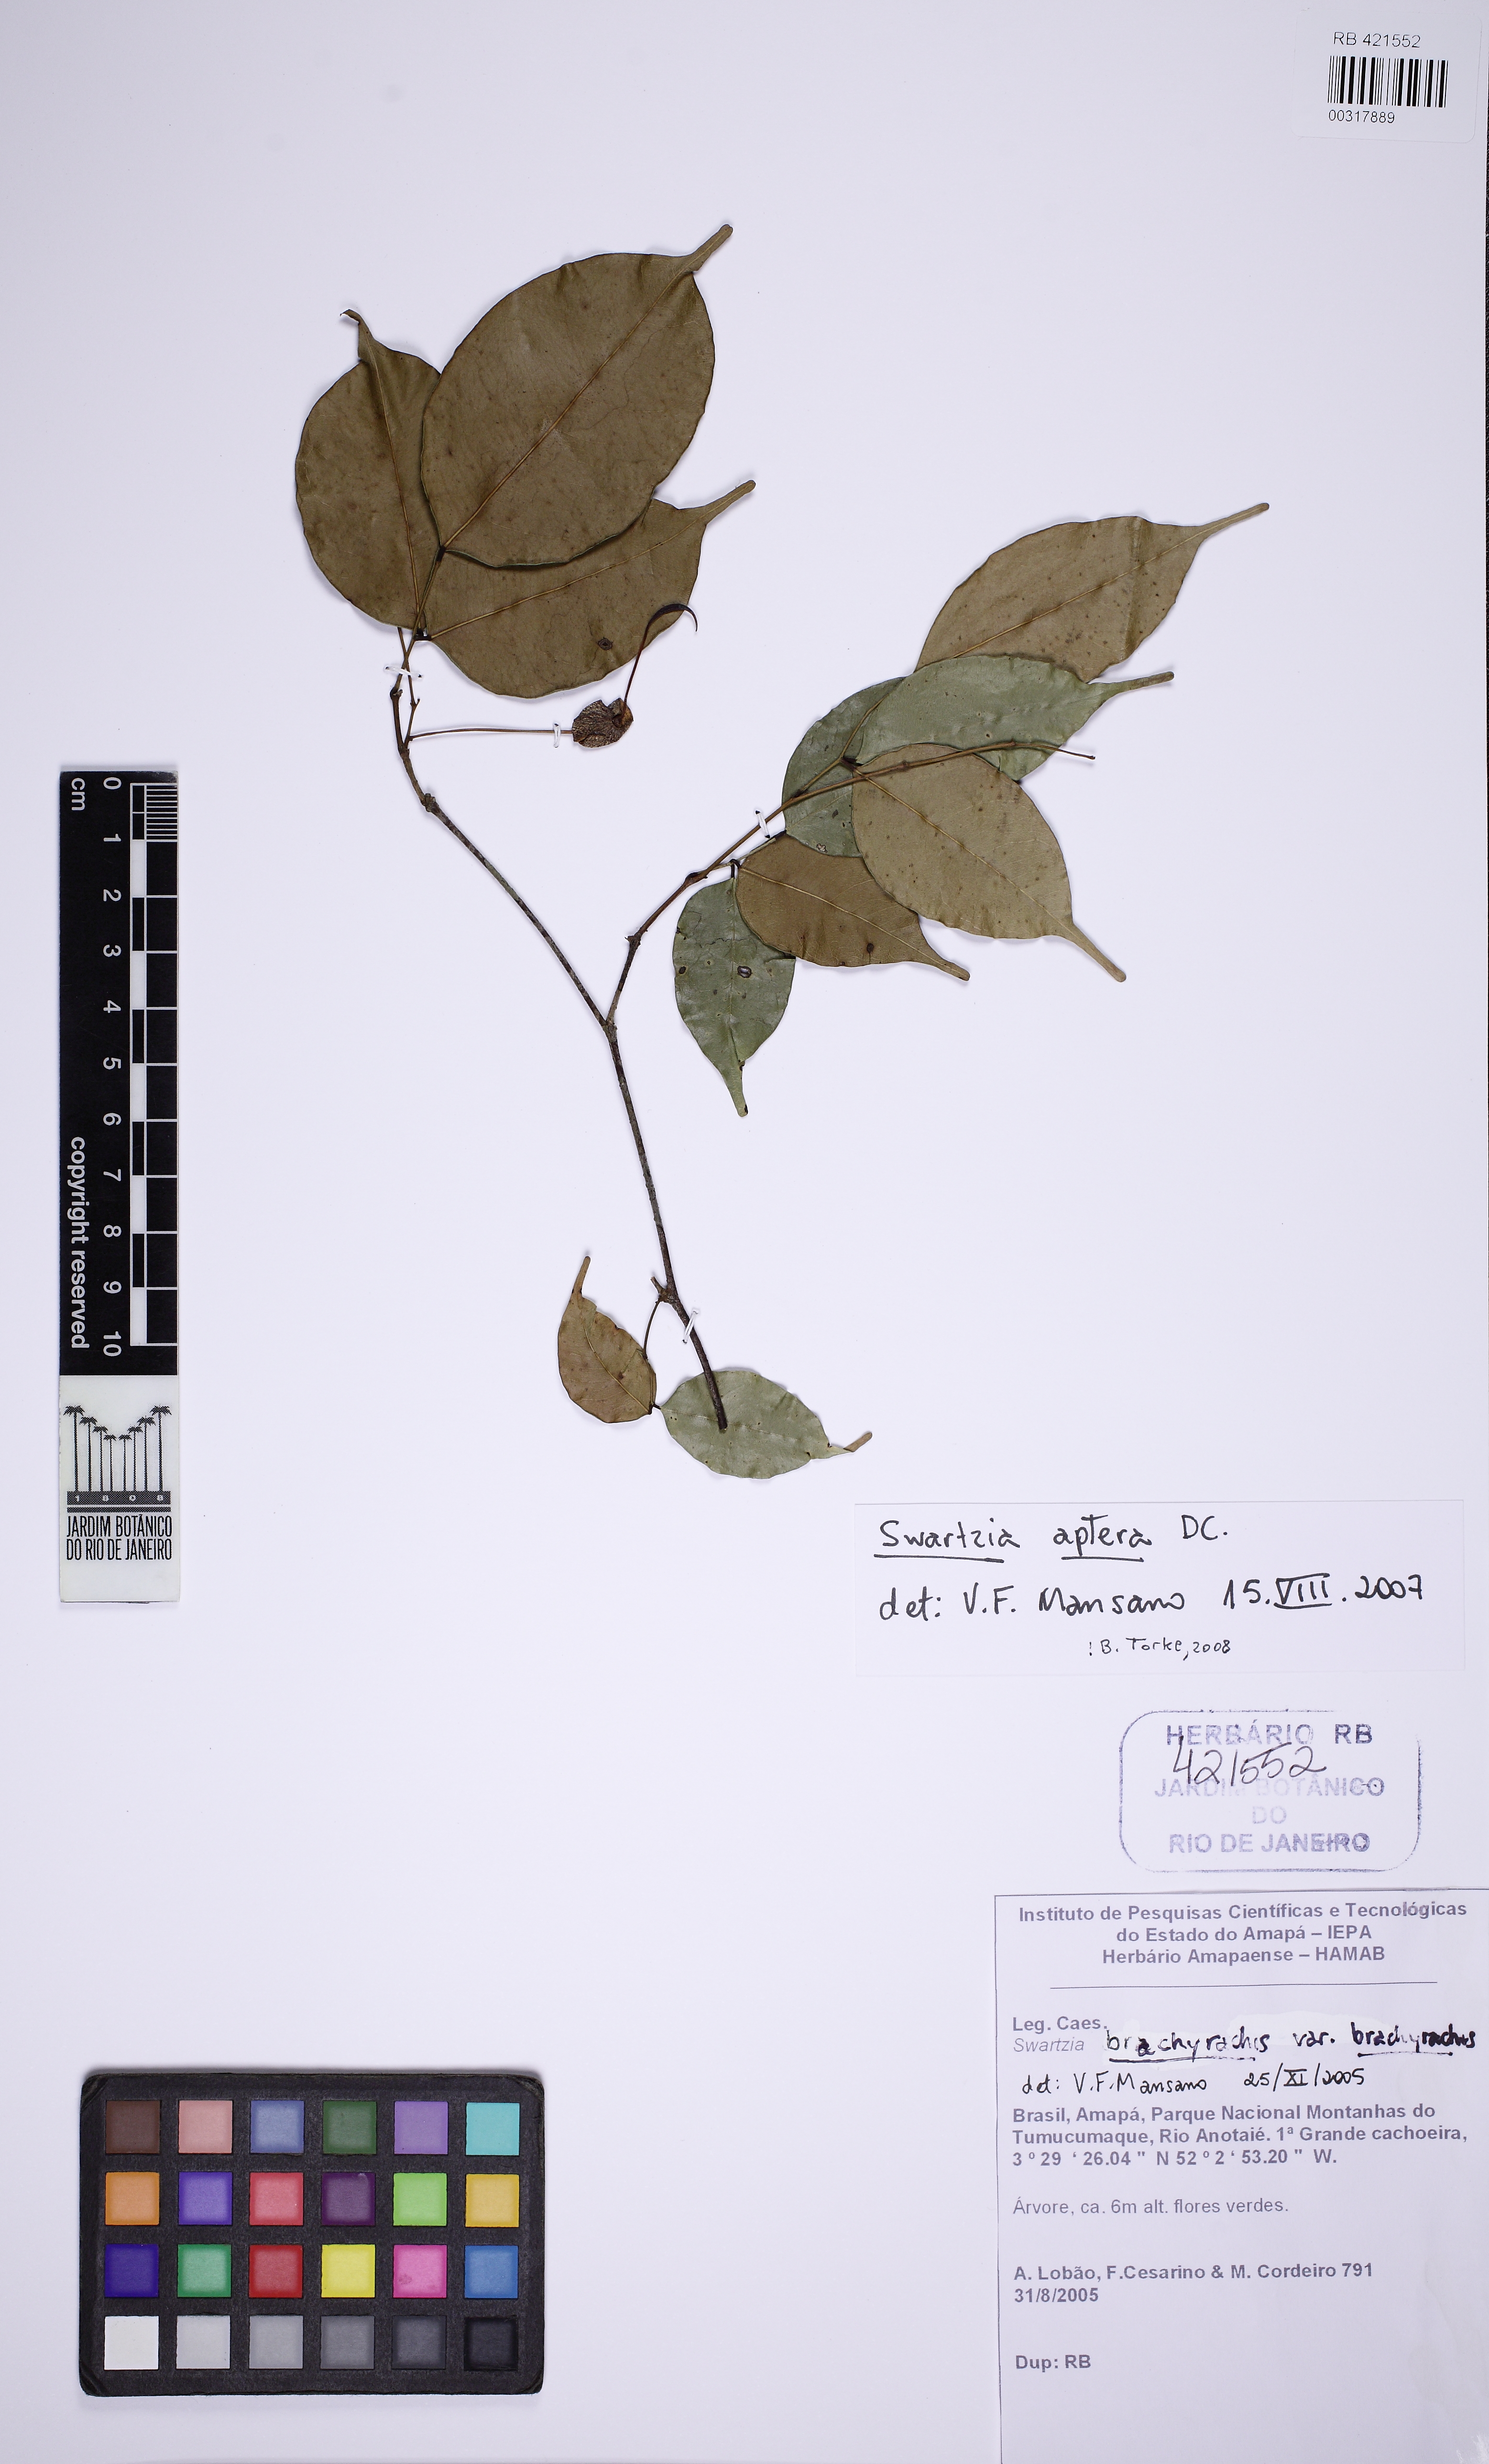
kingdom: Plantae
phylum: Tracheophyta
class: Magnoliopsida
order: Fabales
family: Fabaceae
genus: Swartzia
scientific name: Swartzia aptera
